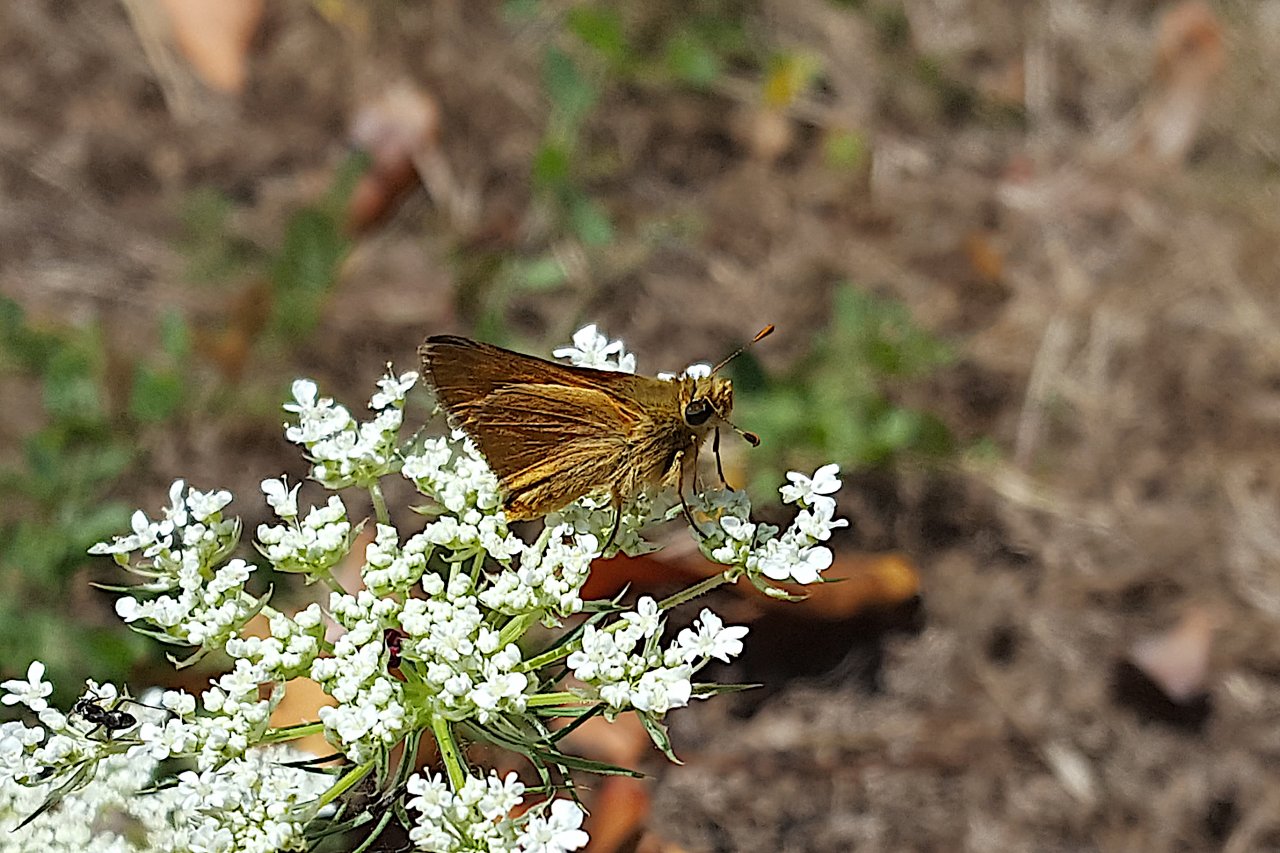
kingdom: Animalia
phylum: Arthropoda
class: Insecta
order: Lepidoptera
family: Hesperiidae
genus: Ochlodes
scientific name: Ochlodes sylvanoides
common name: Woodland Skipper
